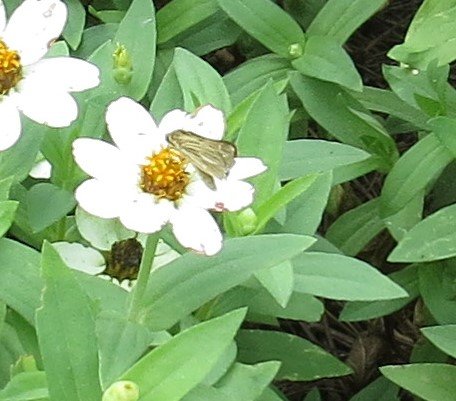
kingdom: Animalia
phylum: Arthropoda
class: Insecta
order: Lepidoptera
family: Hesperiidae
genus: Panoquina
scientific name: Panoquina panoquin
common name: Salt Marsh Skipper
